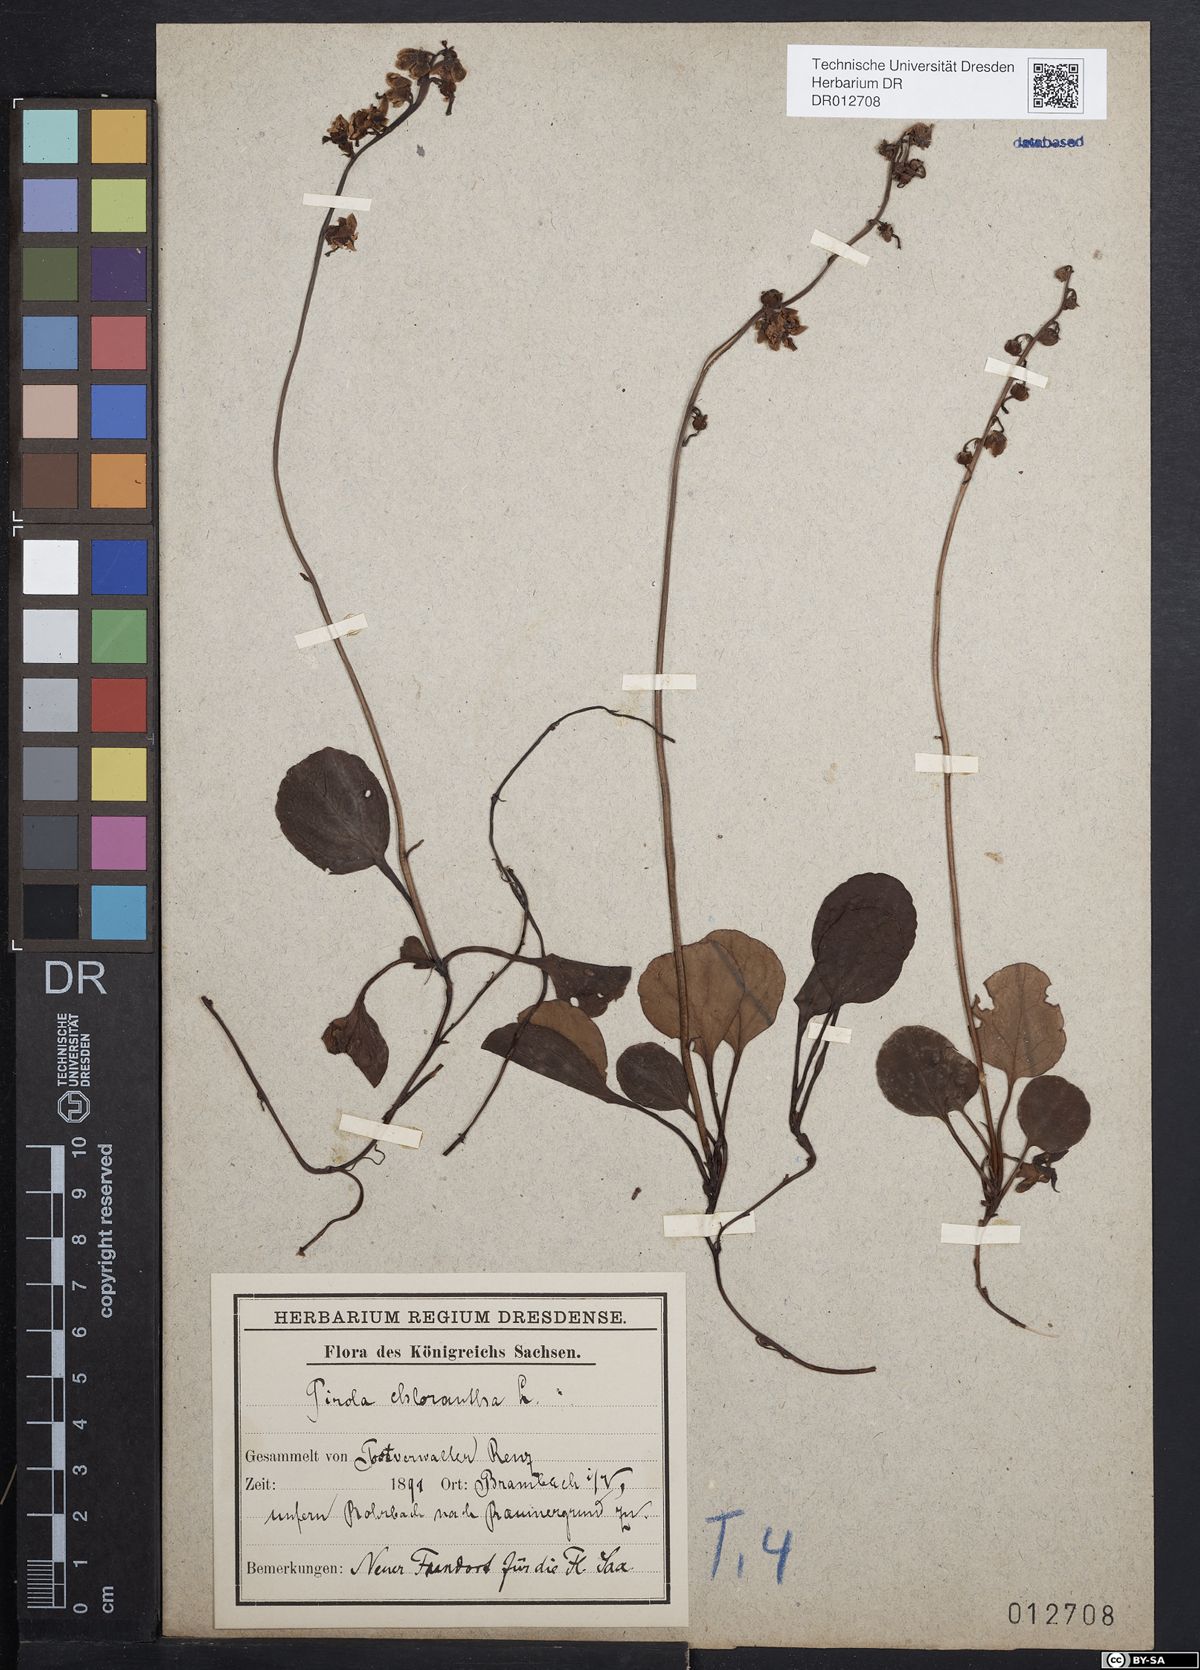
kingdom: Plantae
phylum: Tracheophyta
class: Magnoliopsida
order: Ericales
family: Ericaceae
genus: Pyrola
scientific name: Pyrola chlorantha
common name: Green wintergreen
